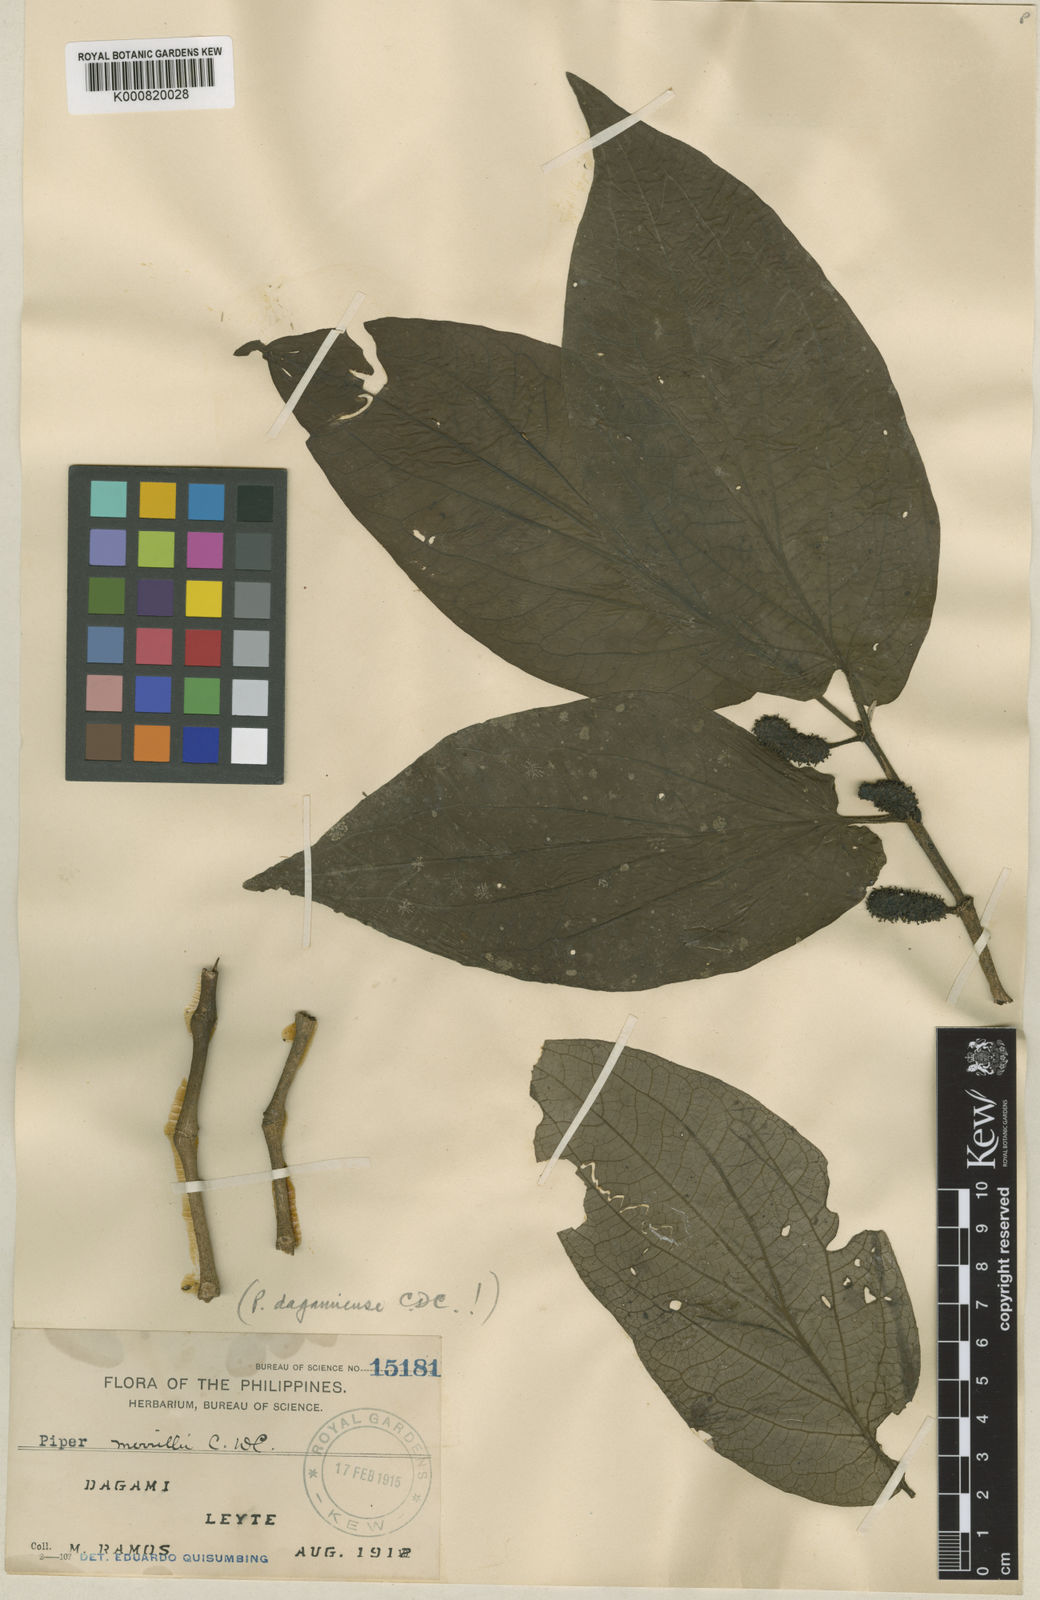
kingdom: Plantae
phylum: Tracheophyta
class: Magnoliopsida
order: Piperales
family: Piperaceae
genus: Piper
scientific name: Piper merrillii
